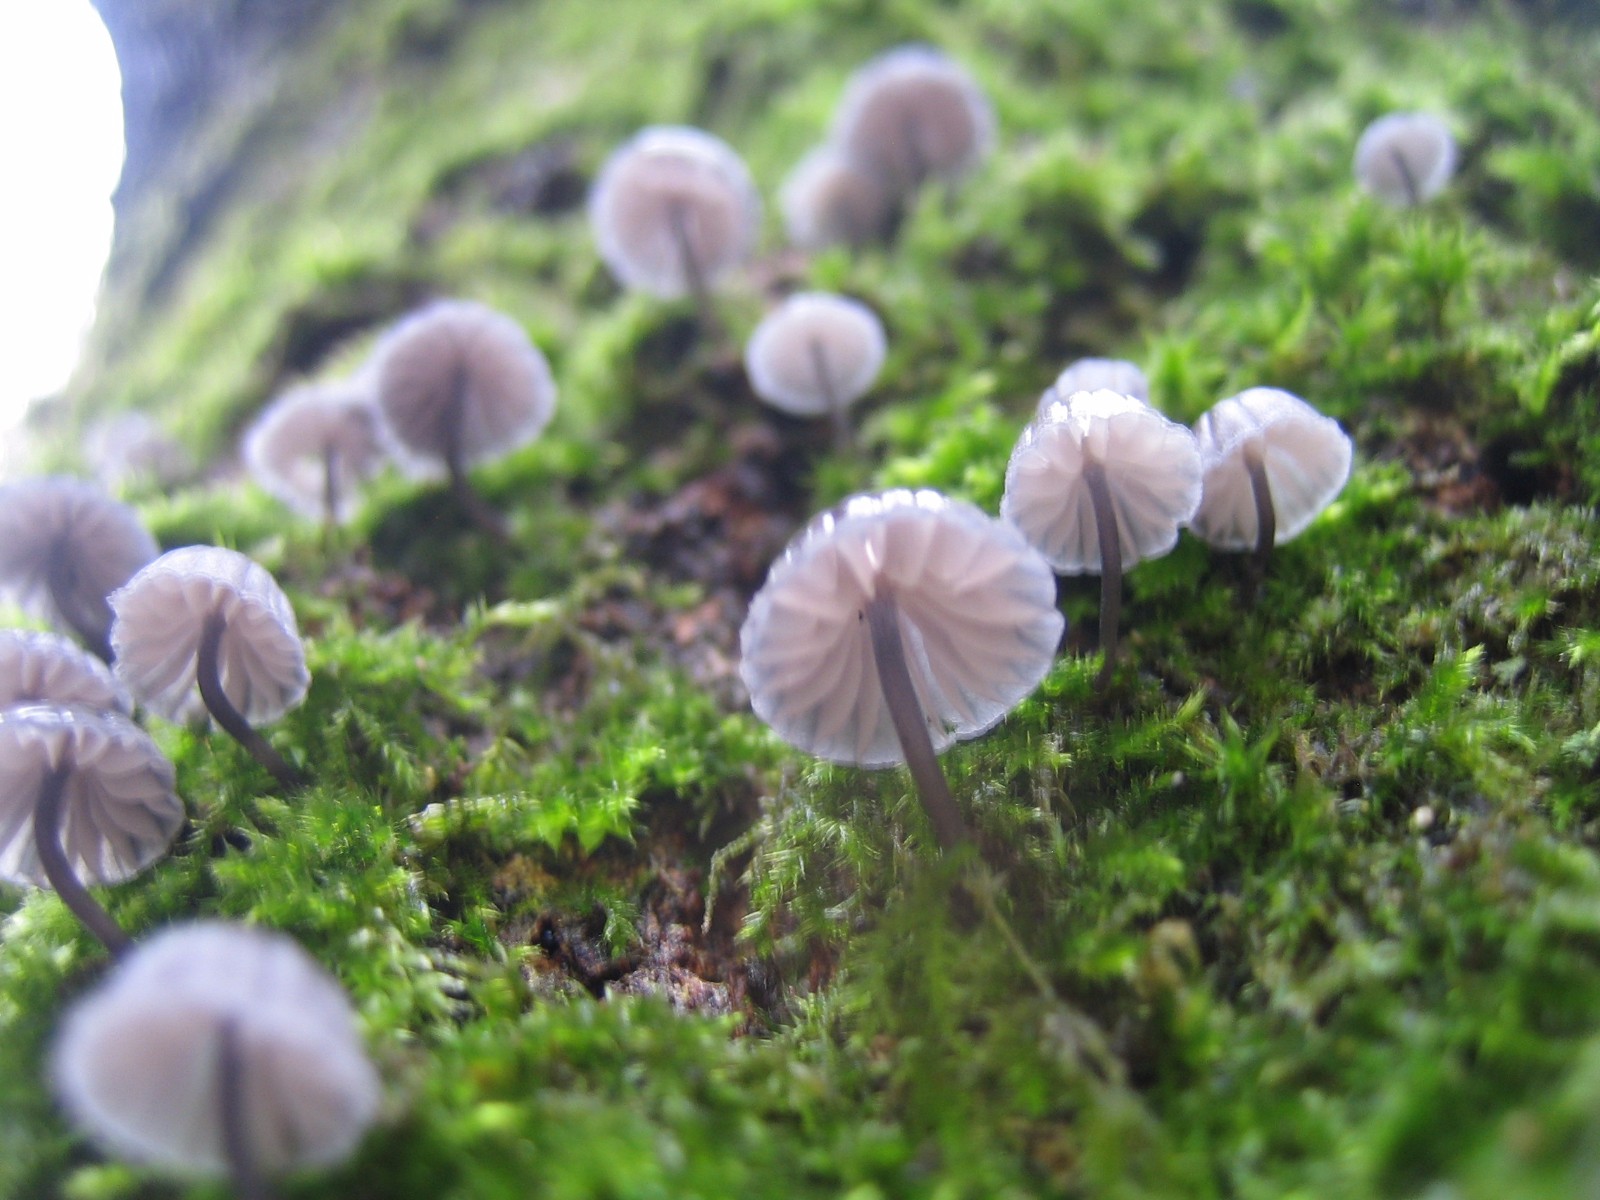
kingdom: Fungi
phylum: Basidiomycota
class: Agaricomycetes
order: Agaricales
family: Mycenaceae
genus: Mycena
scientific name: Mycena pseudocorticola
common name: gråblå bark-huesvamp
